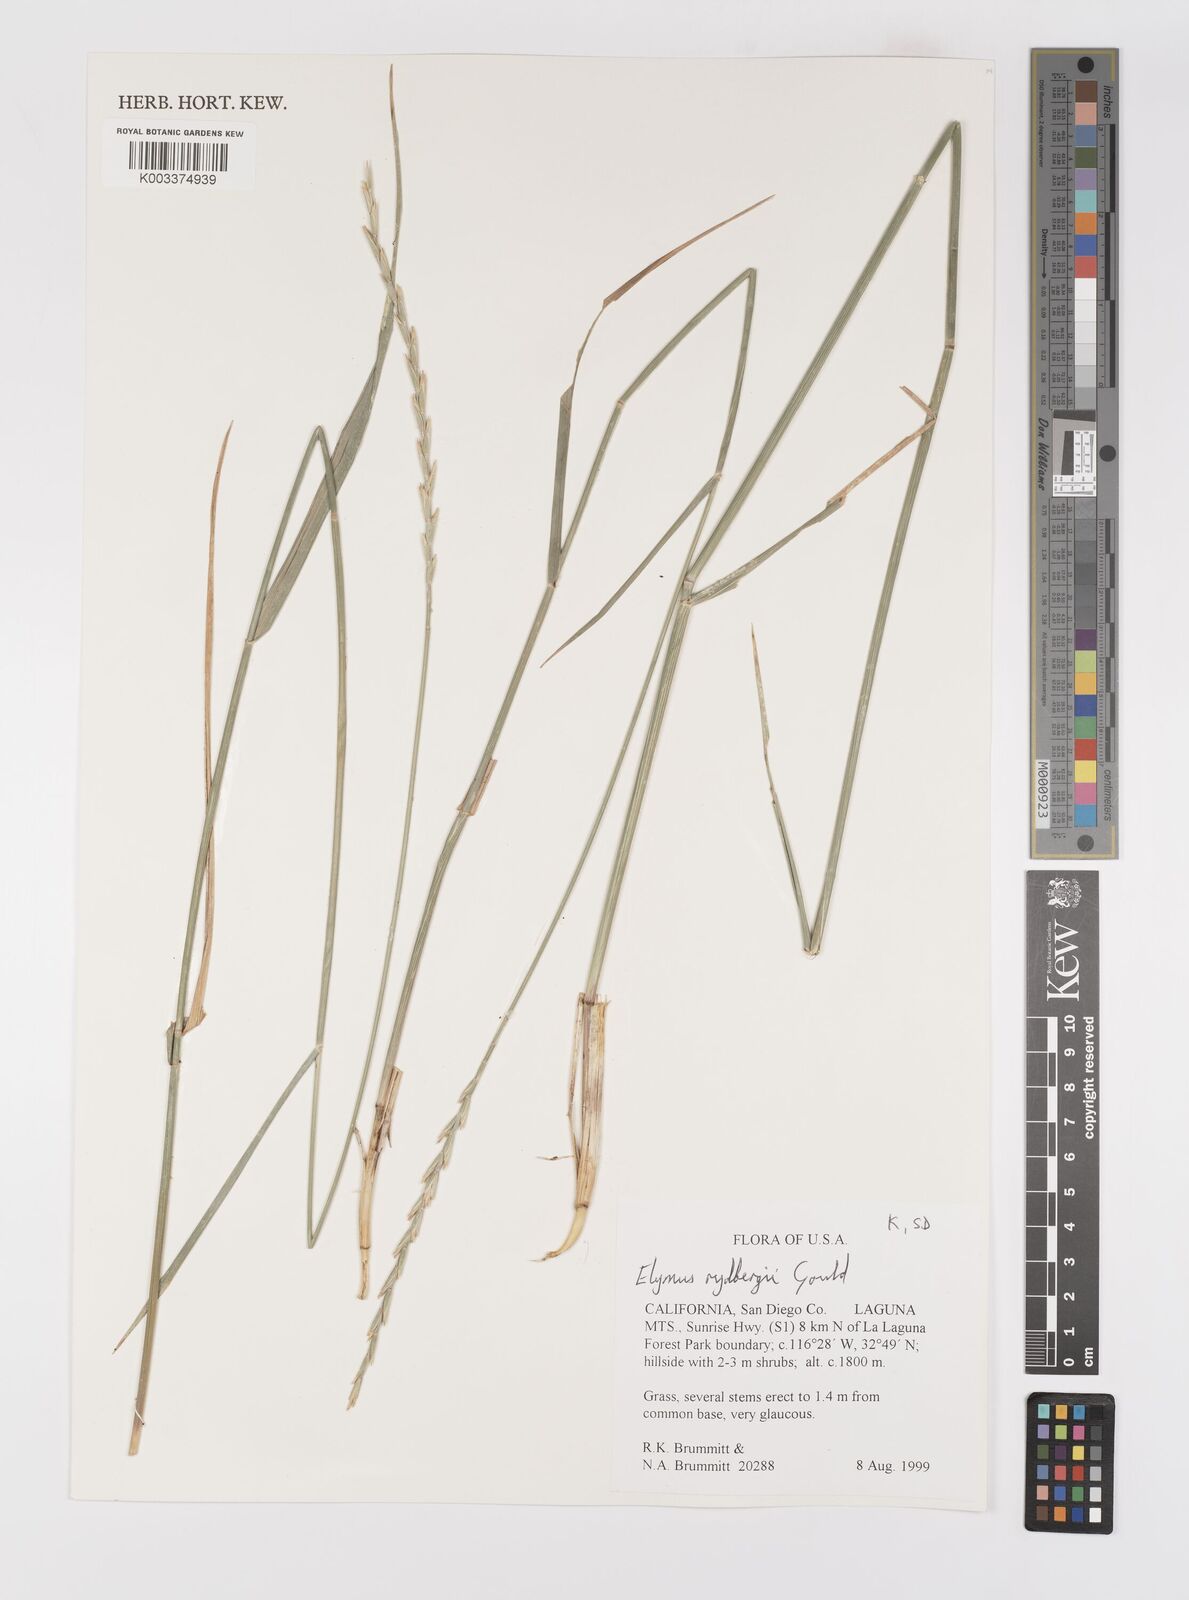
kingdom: Plantae
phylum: Tracheophyta
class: Liliopsida
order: Poales
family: Poaceae
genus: Elymus
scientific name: Elymus lanceolatus
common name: Thick-spike wheatgrass
